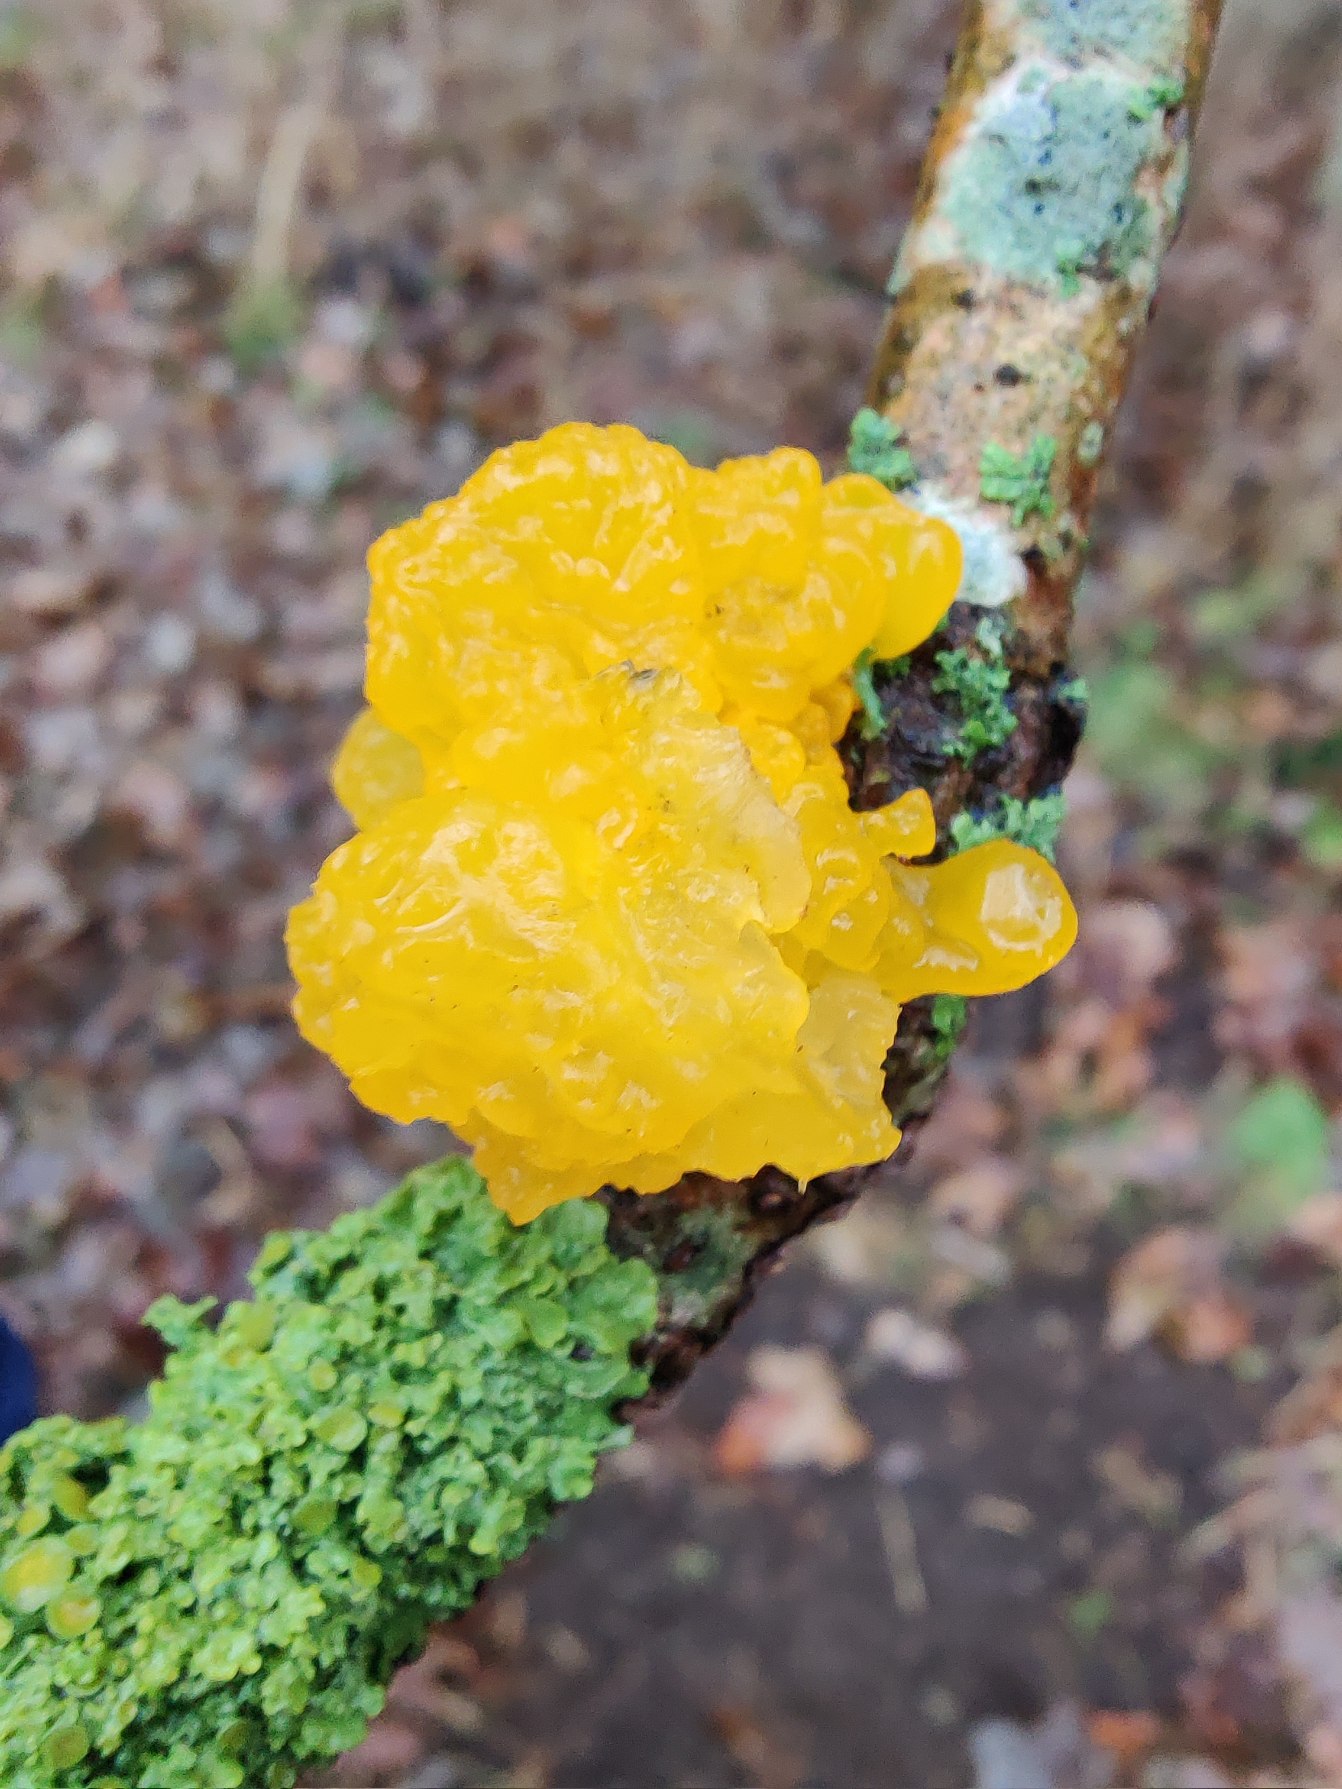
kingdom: Fungi
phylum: Basidiomycota
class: Tremellomycetes
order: Tremellales
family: Tremellaceae
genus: Tremella
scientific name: Tremella mesenterica
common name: Gul bævresvamp
